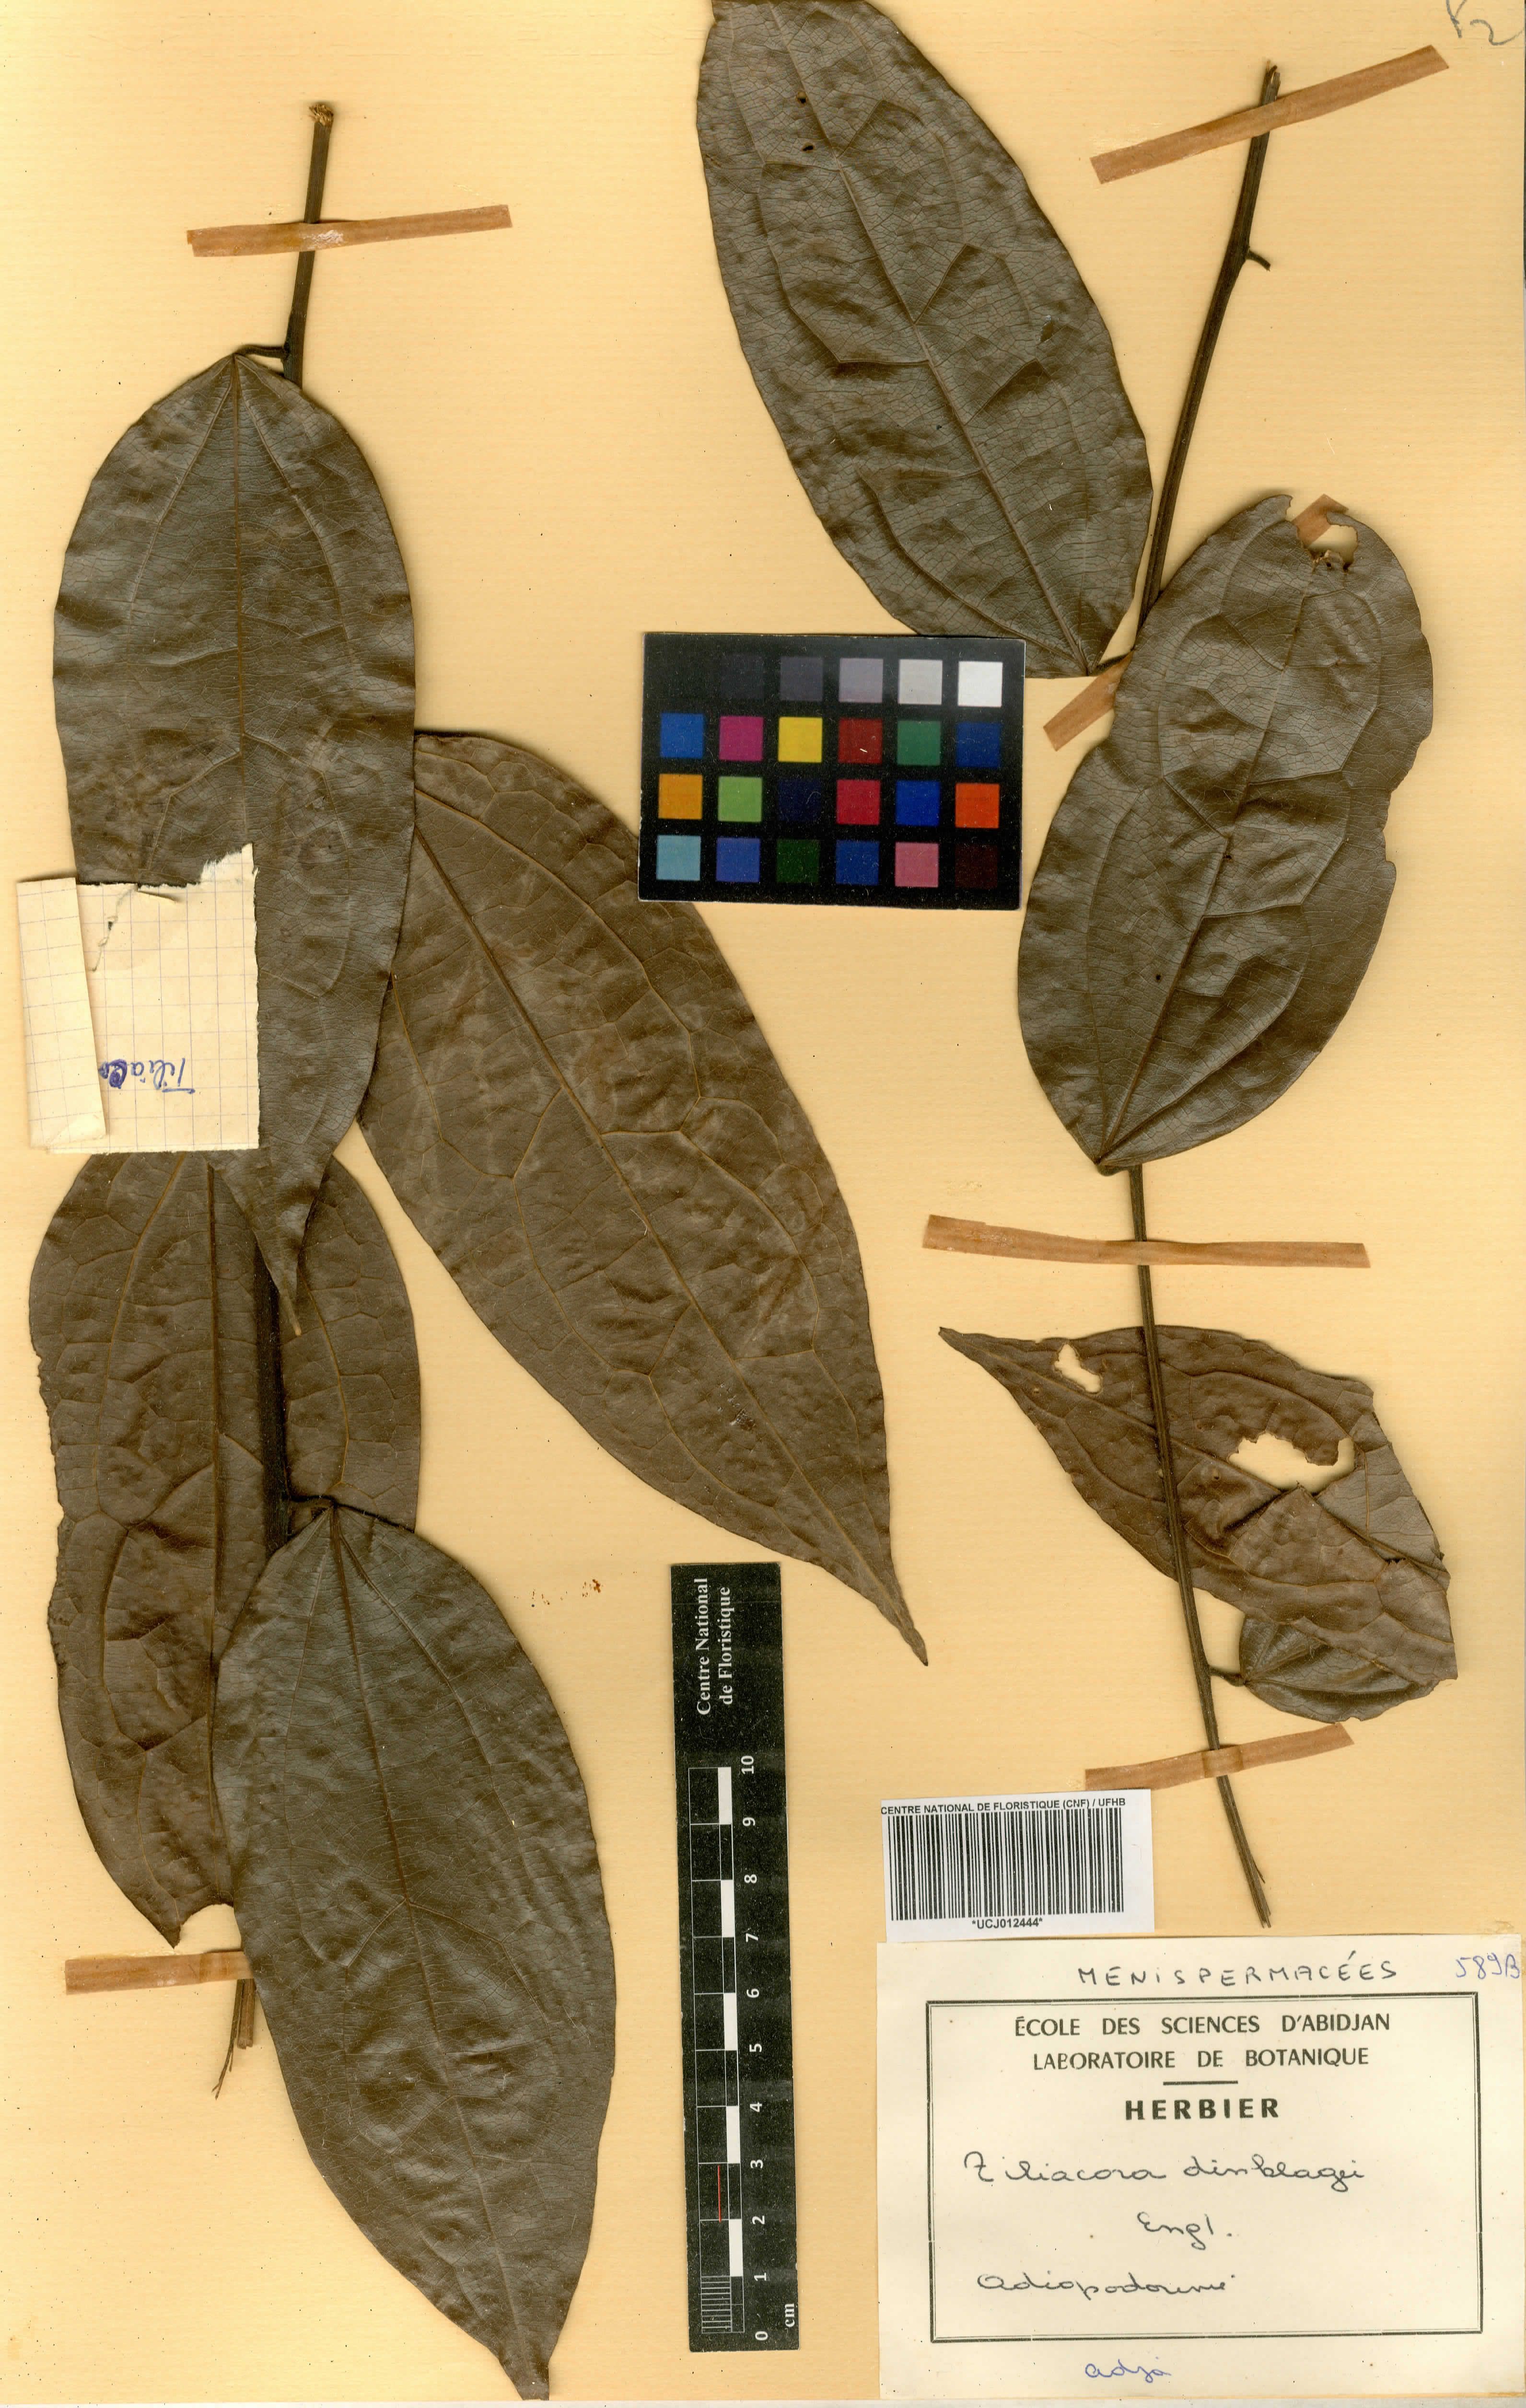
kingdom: Plantae
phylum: Tracheophyta
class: Magnoliopsida
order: Ranunculales
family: Menispermaceae
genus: Tiliacora
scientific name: Tiliacora dinklagei
